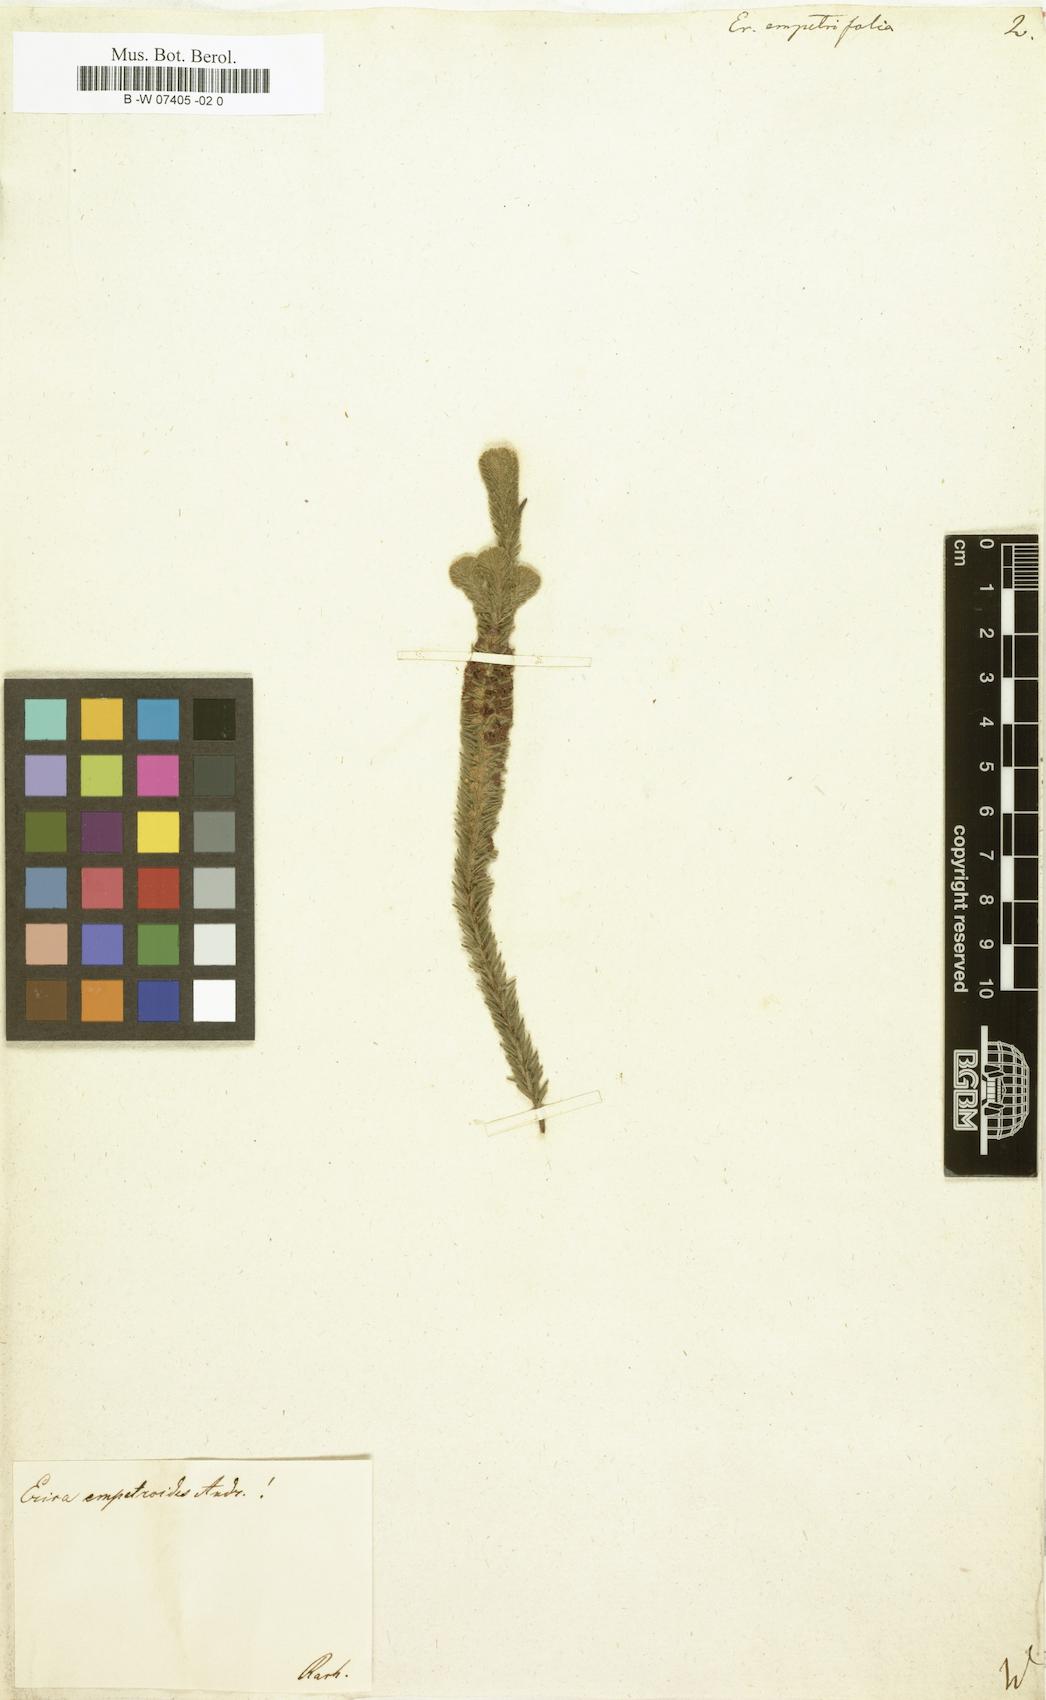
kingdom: Plantae
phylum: Tracheophyta
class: Magnoliopsida
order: Ericales
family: Ericaceae
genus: Erica
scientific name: Erica empetrina
